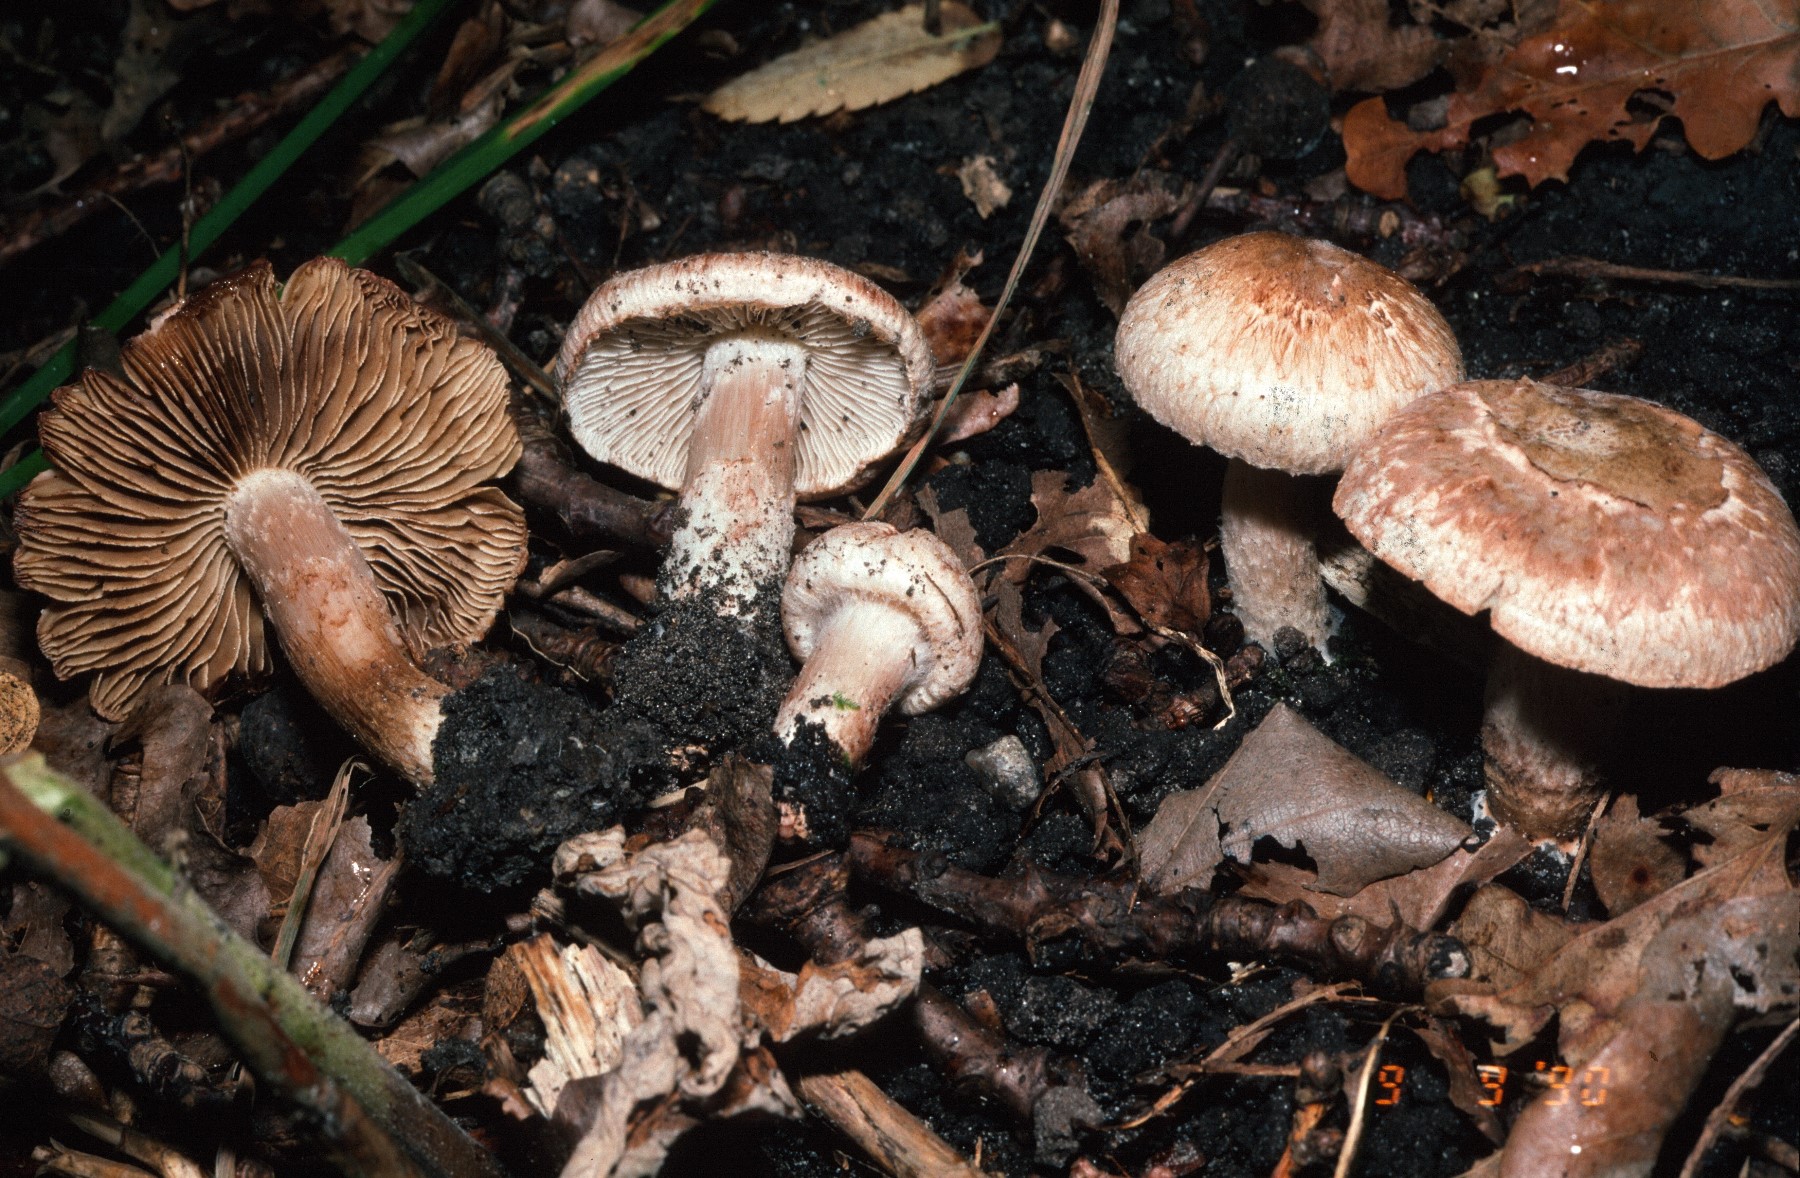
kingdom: Fungi
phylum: Basidiomycota
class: Agaricomycetes
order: Agaricales
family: Inocybaceae
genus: Inosperma
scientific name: Inosperma bongardii
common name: Bongards trævlhat
